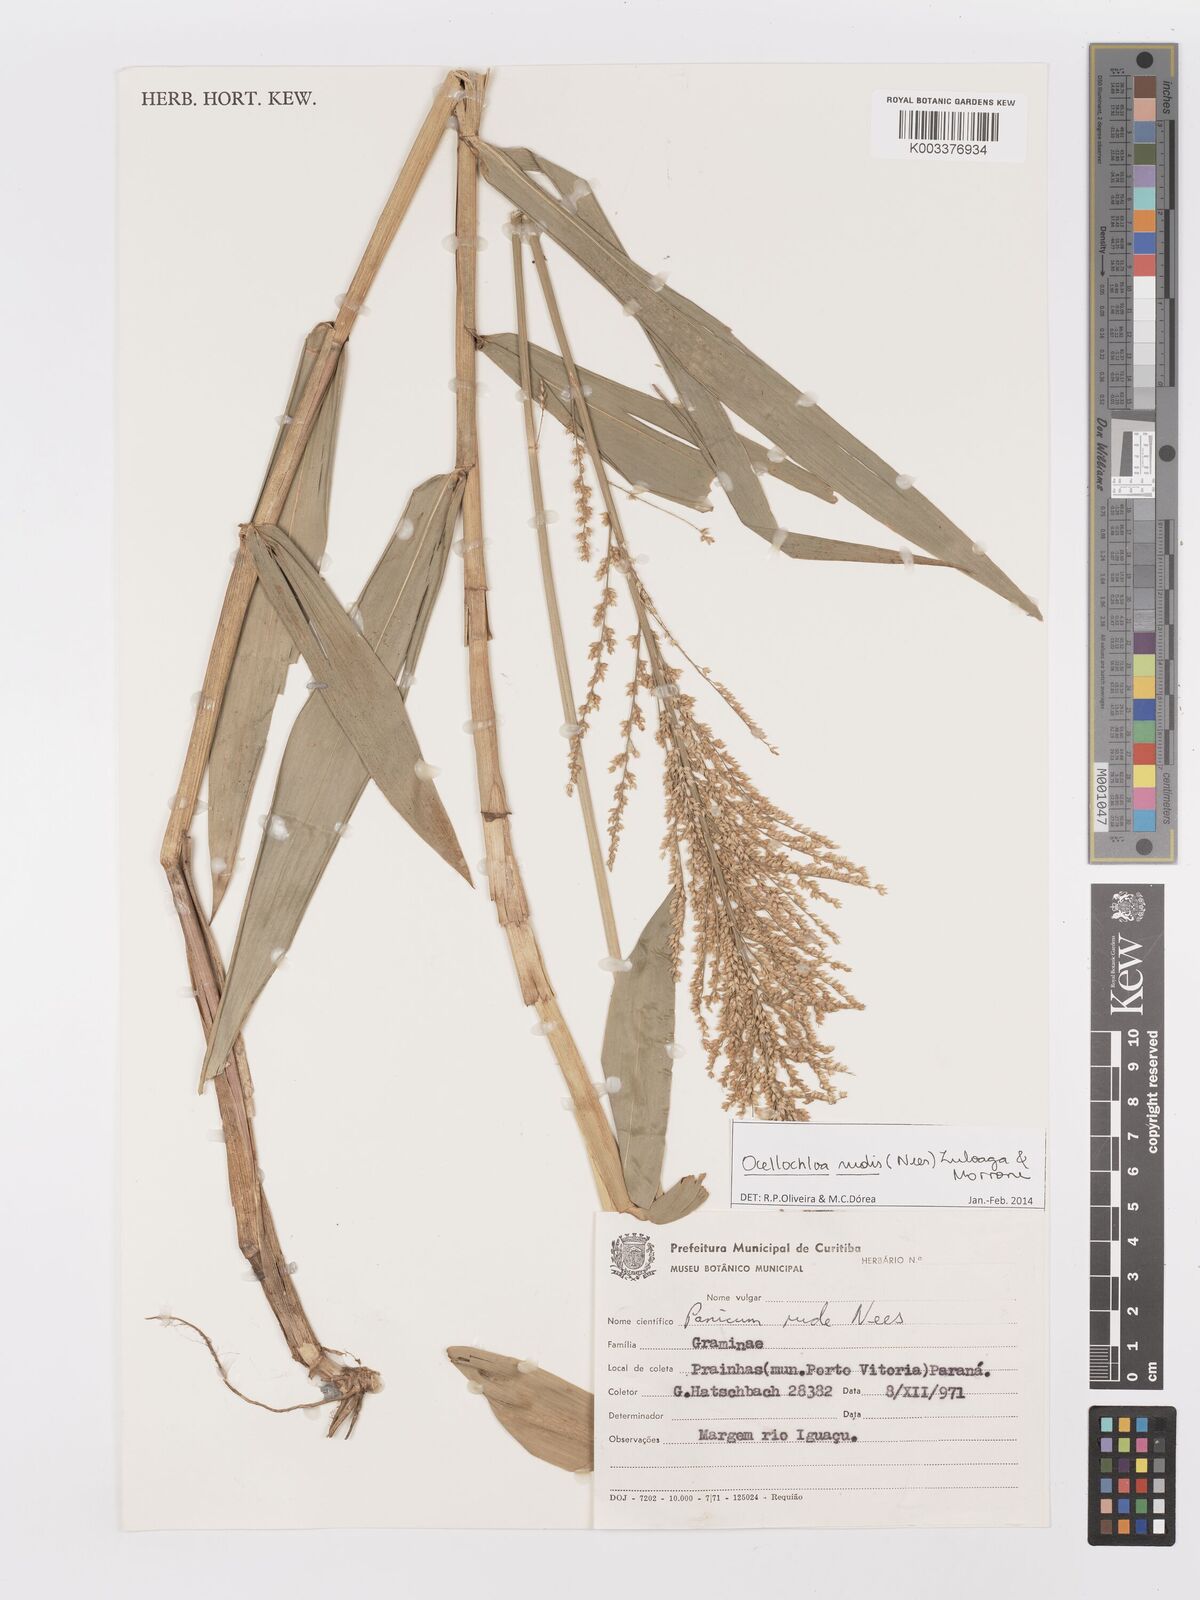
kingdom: Plantae
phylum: Tracheophyta
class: Liliopsida
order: Poales
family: Poaceae
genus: Ocellochloa
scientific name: Ocellochloa rudis
